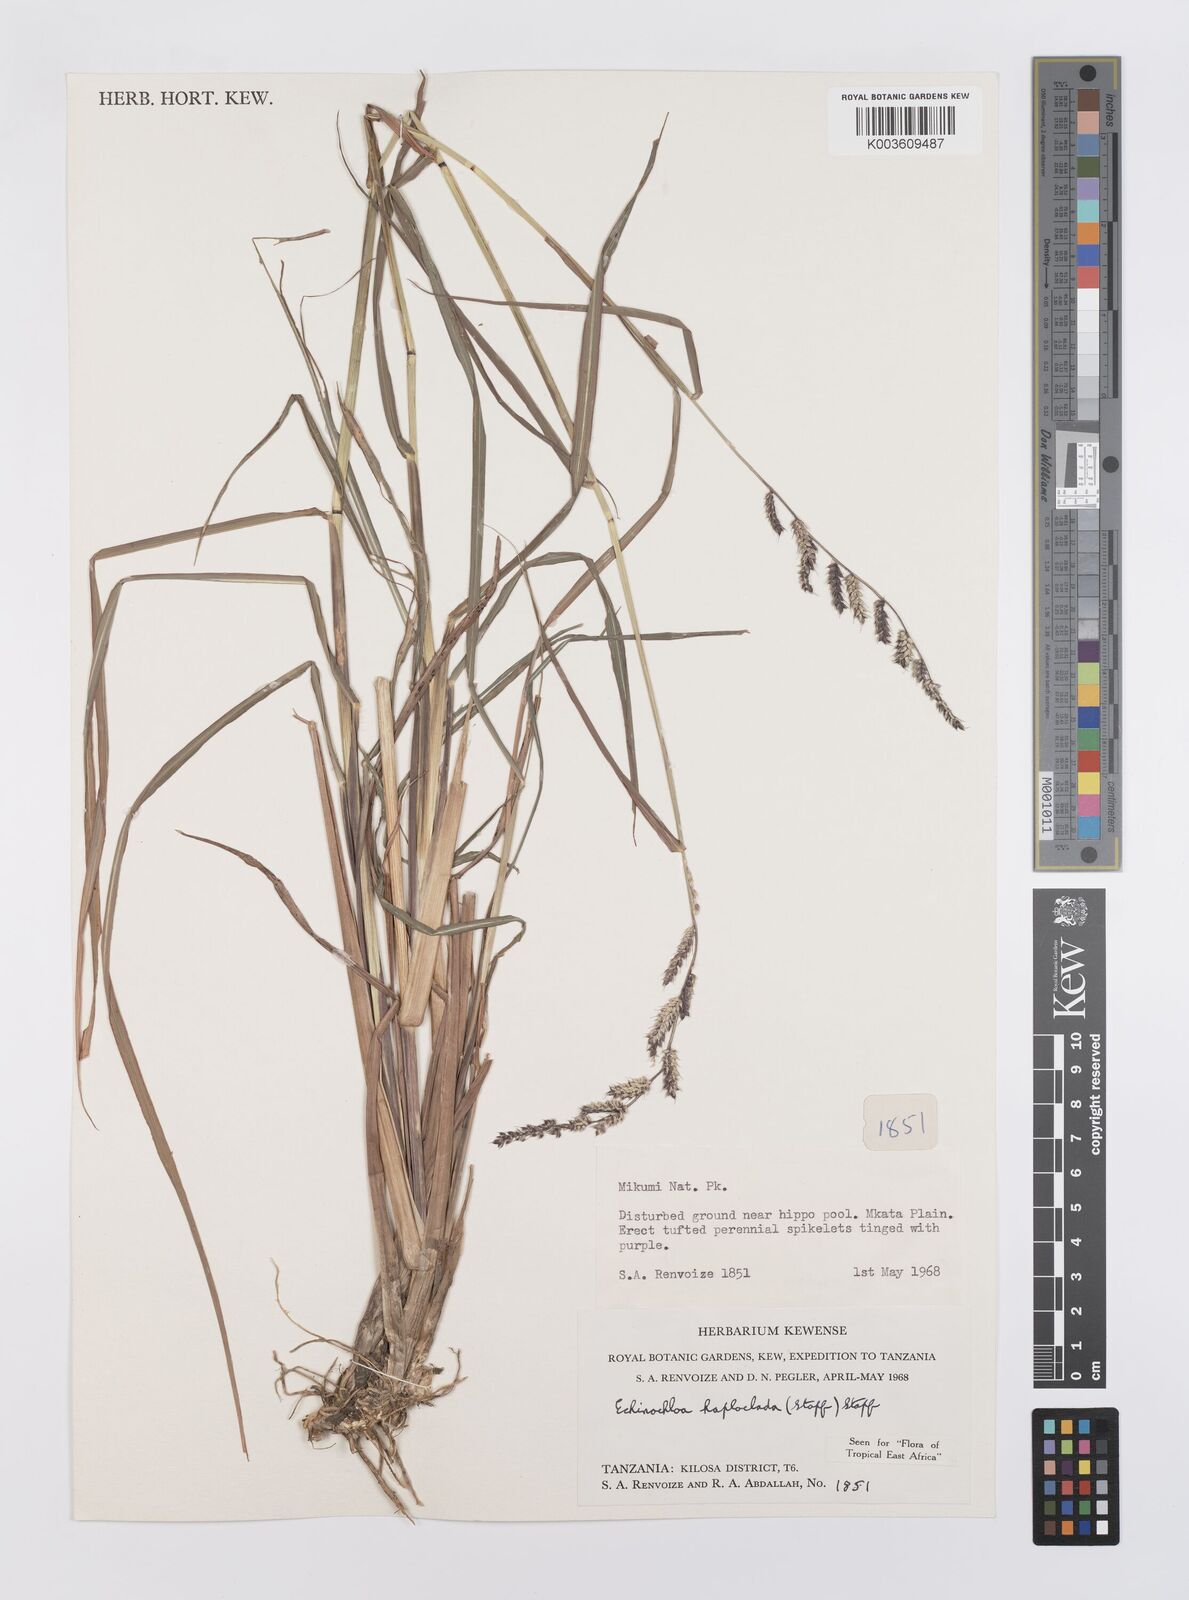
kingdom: Plantae
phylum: Tracheophyta
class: Liliopsida
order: Poales
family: Poaceae
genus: Echinochloa
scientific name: Echinochloa haploclada
